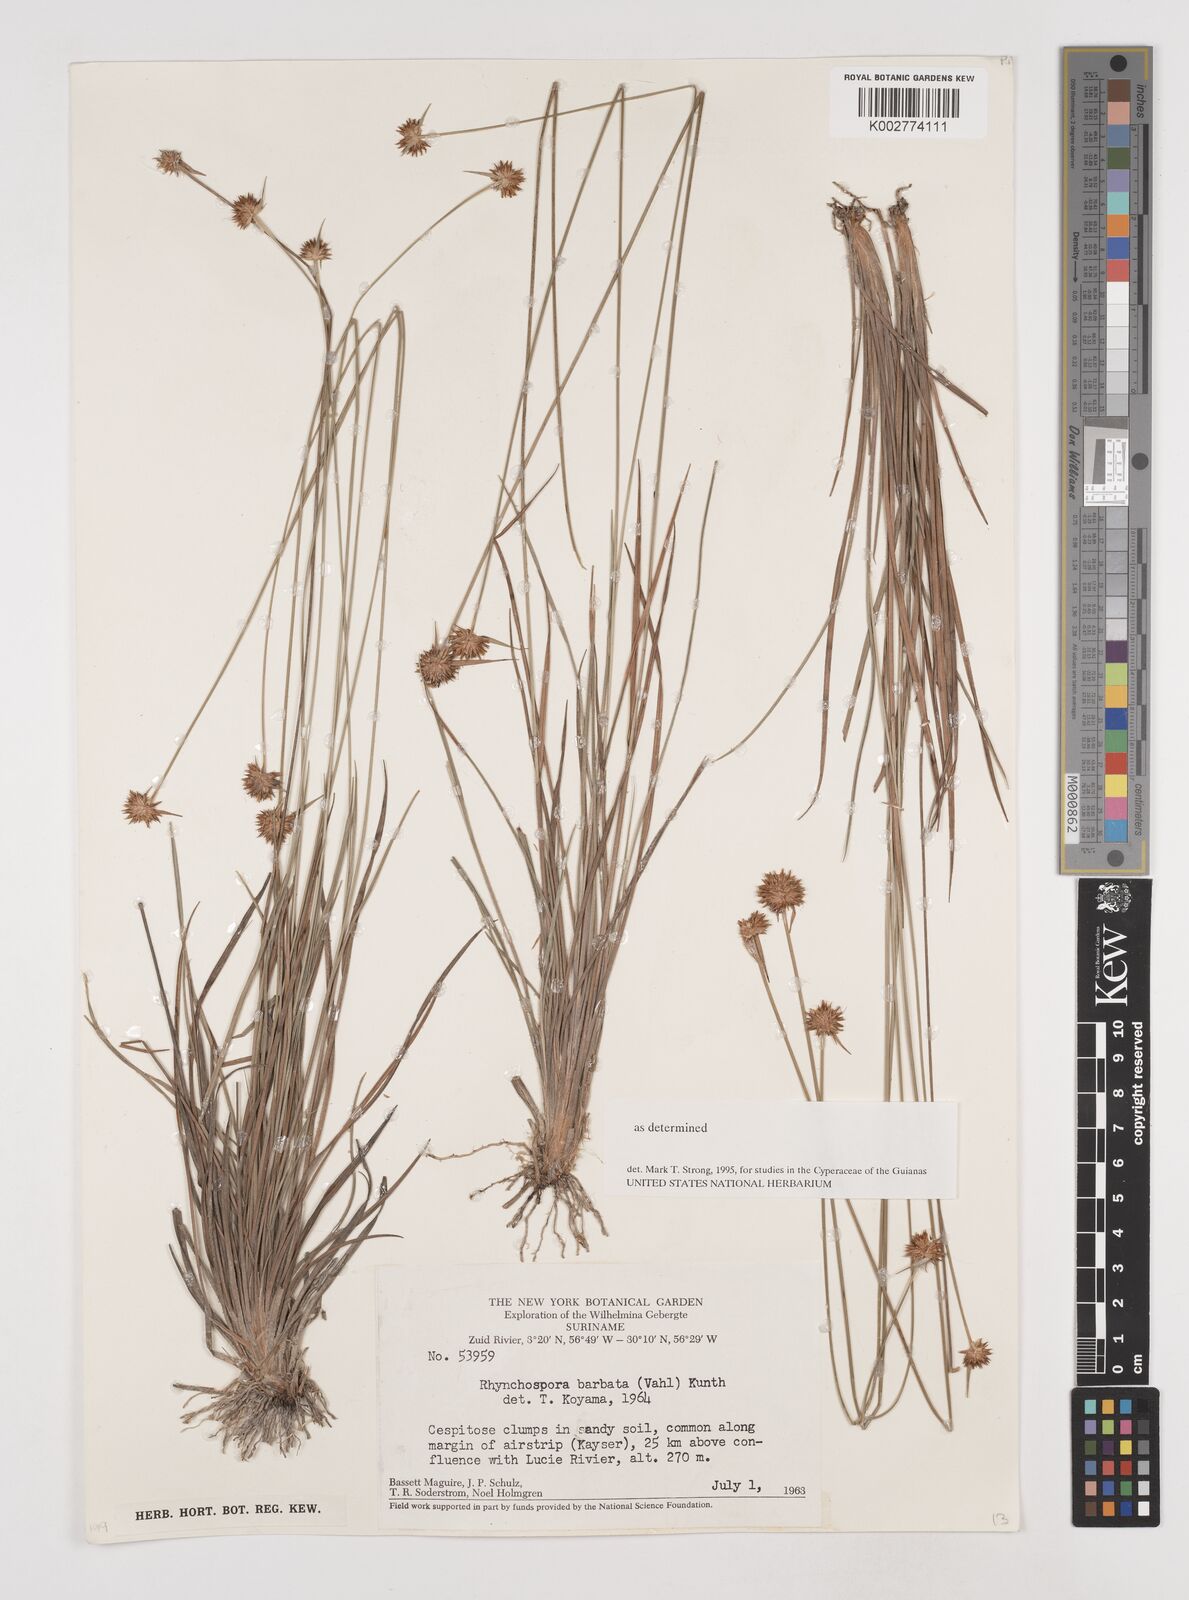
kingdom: Plantae
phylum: Tracheophyta
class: Liliopsida
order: Poales
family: Cyperaceae
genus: Rhynchospora
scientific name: Rhynchospora barbata
